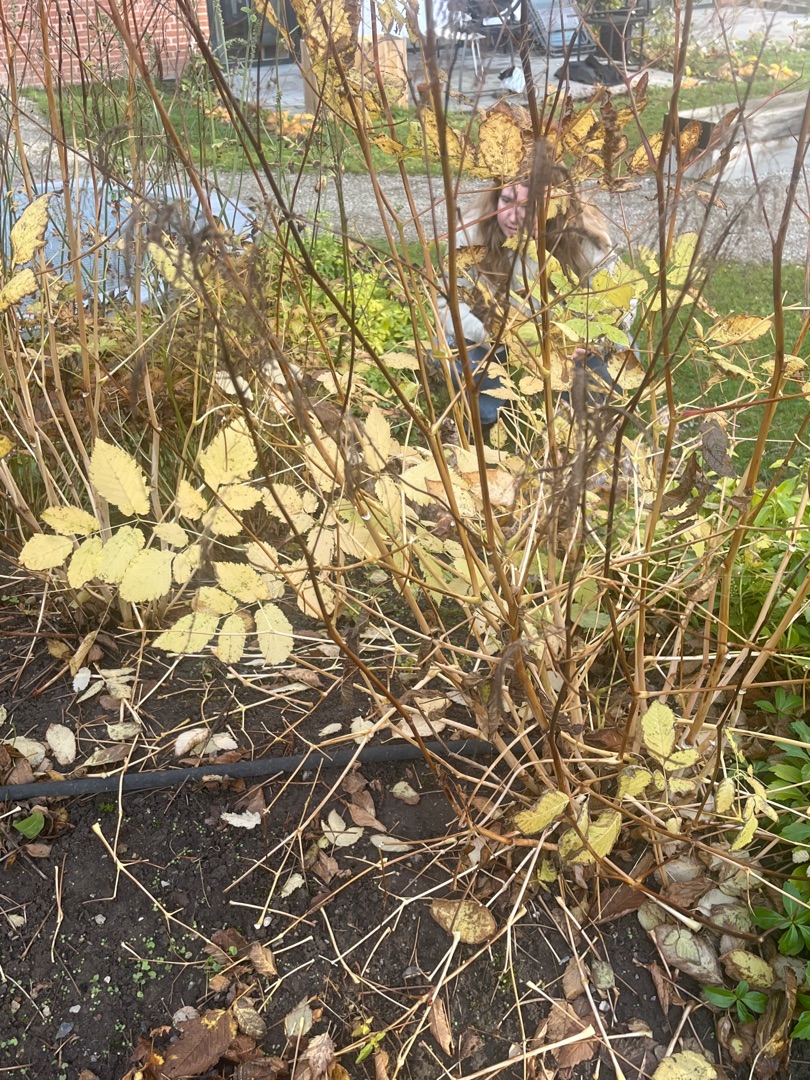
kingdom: Plantae
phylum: Tracheophyta
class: Magnoliopsida
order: Rosales
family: Rosaceae
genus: Aruncus
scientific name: Aruncus
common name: Fjerbuskslægten
